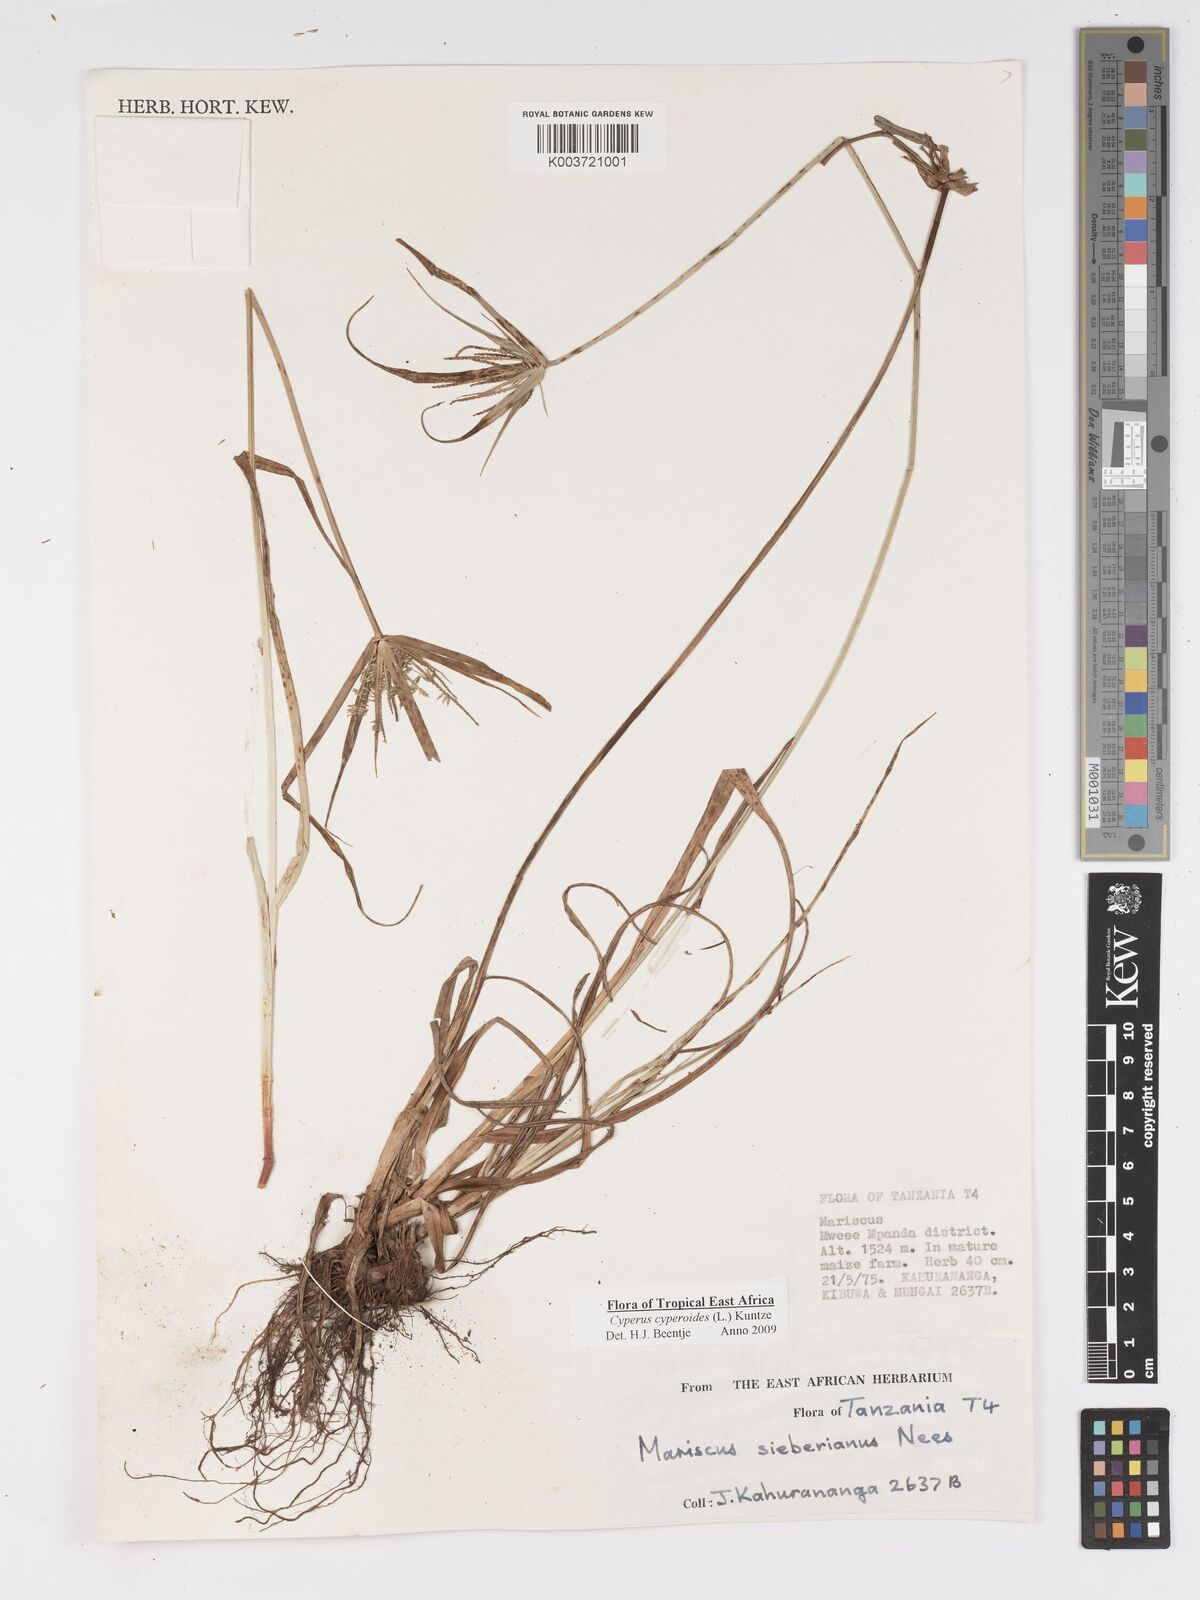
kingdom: Plantae
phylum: Tracheophyta
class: Liliopsida
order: Poales
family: Cyperaceae
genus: Cyperus
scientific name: Cyperus
